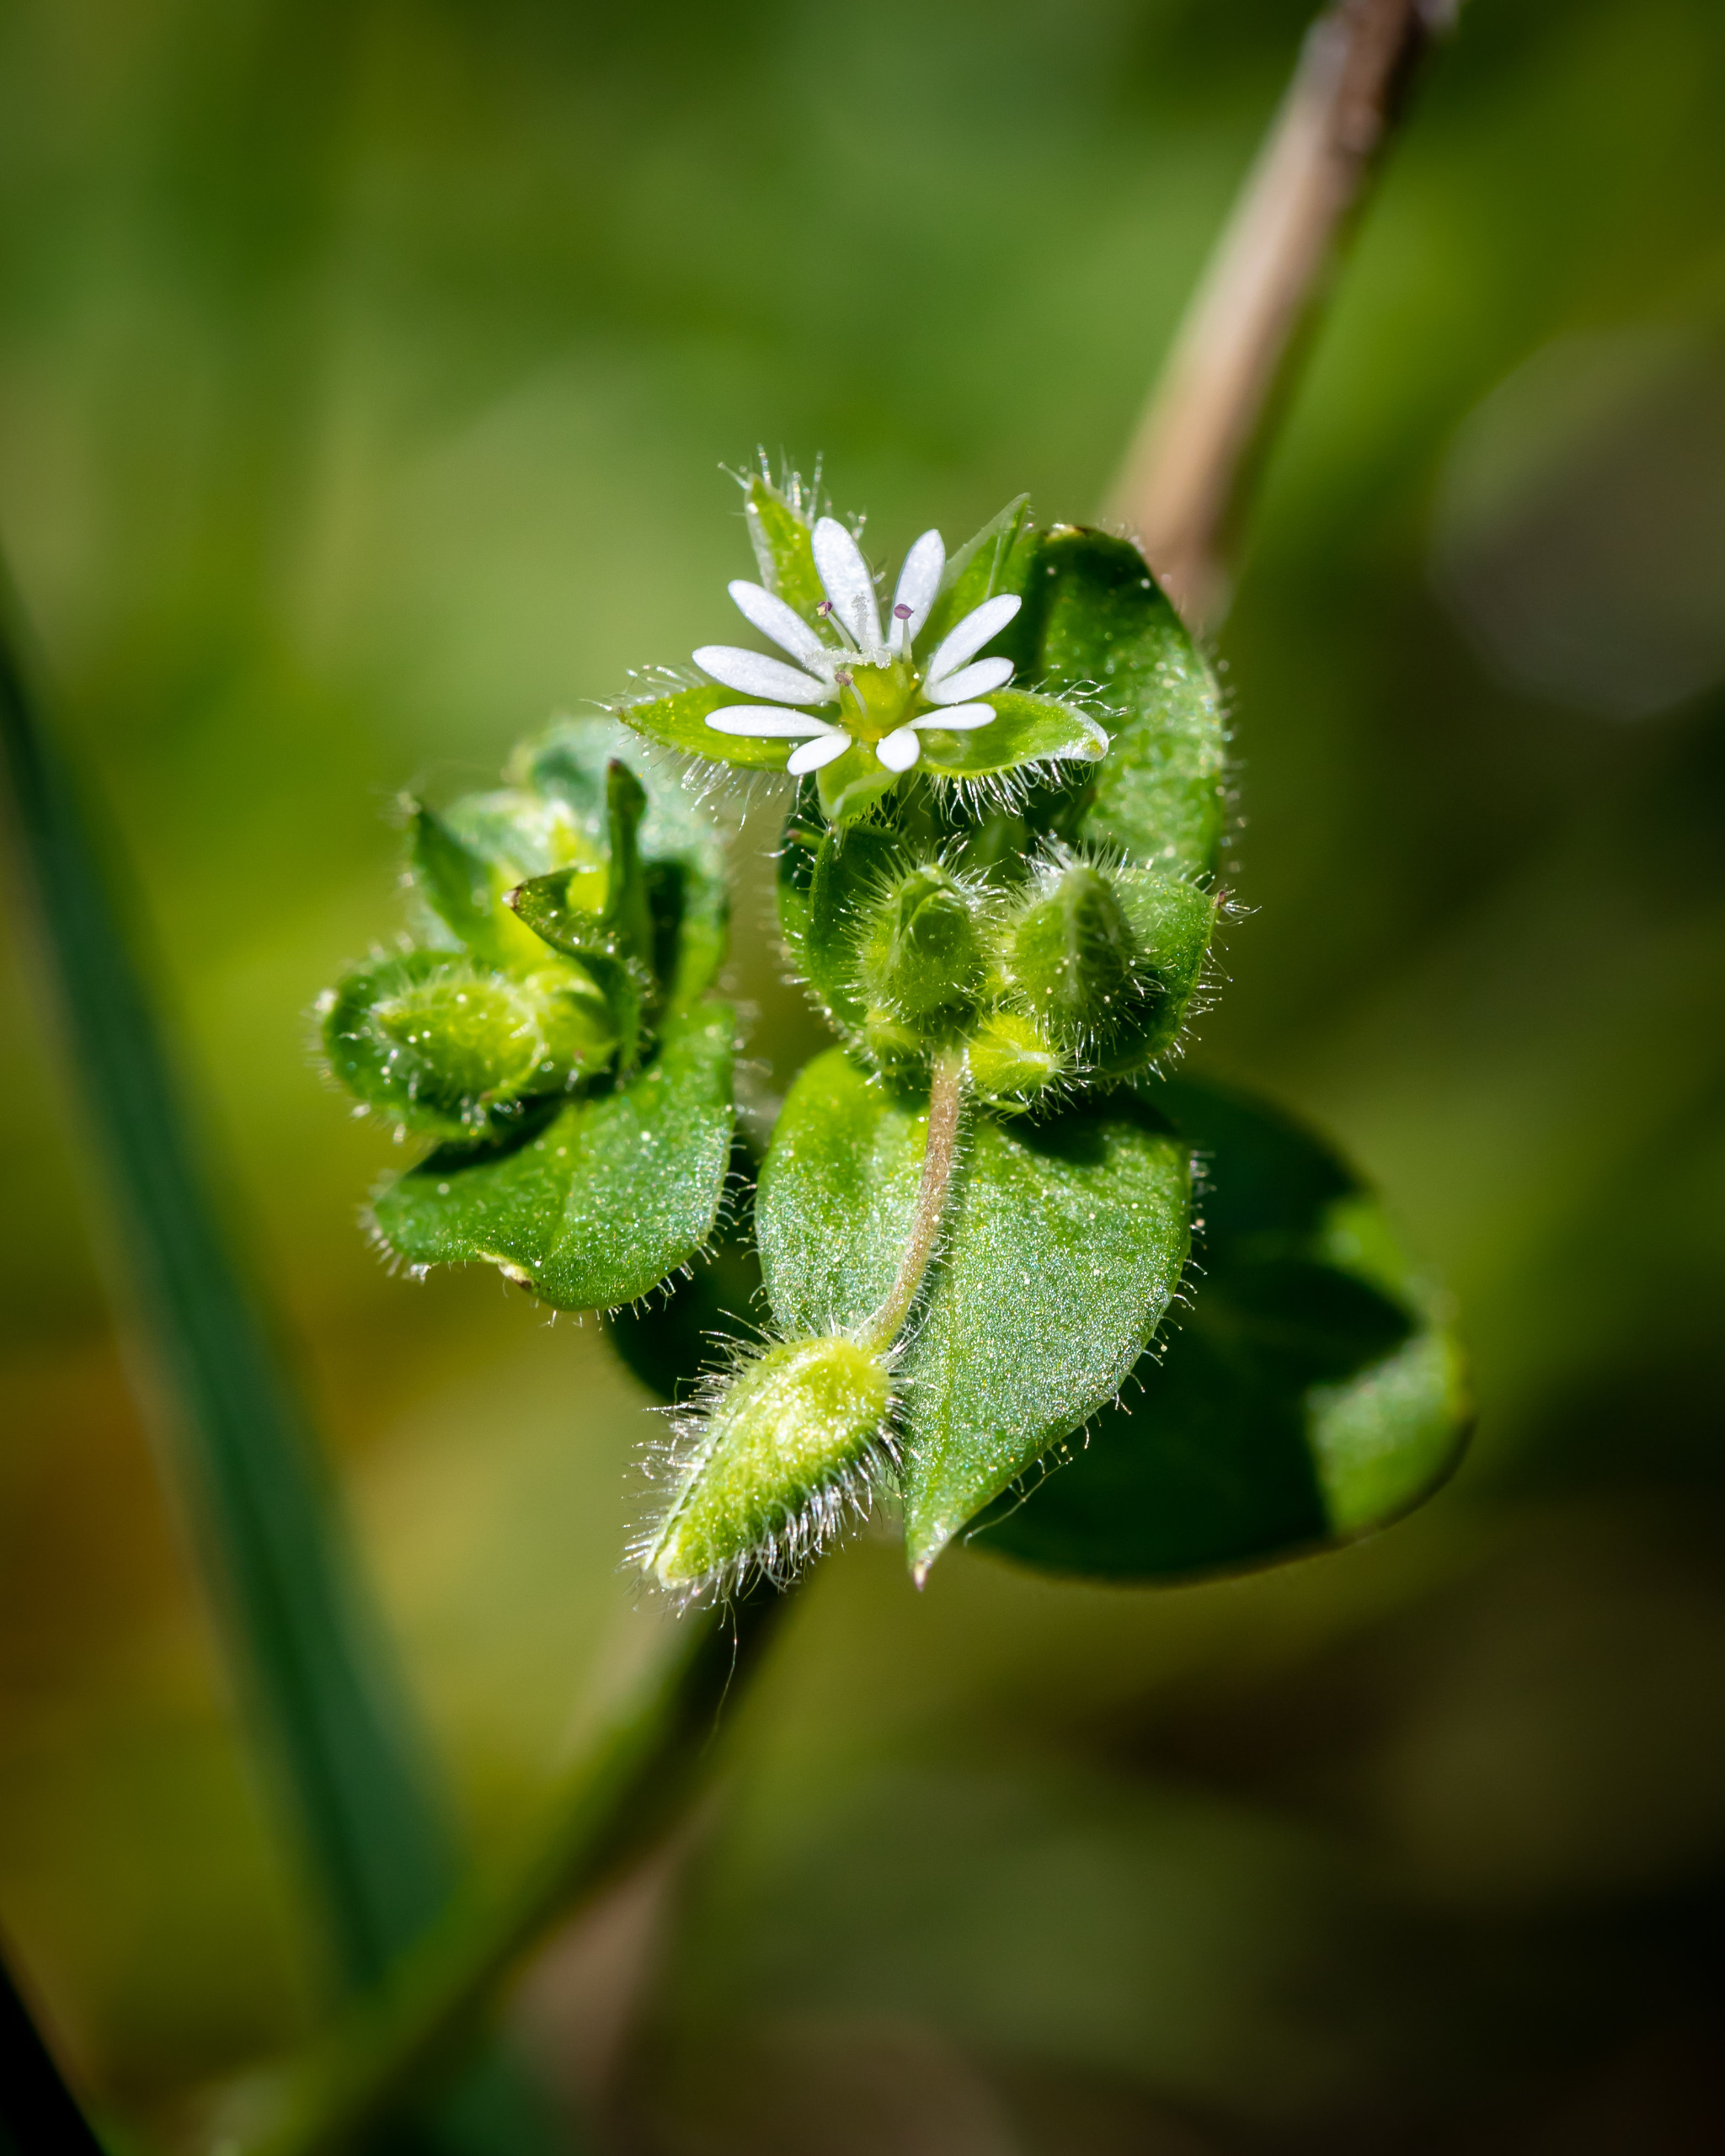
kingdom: Plantae
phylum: Tracheophyta
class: Magnoliopsida
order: Caryophyllales
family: Caryophyllaceae
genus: Stellaria
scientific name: Stellaria media
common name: Almindelig fuglegræs
